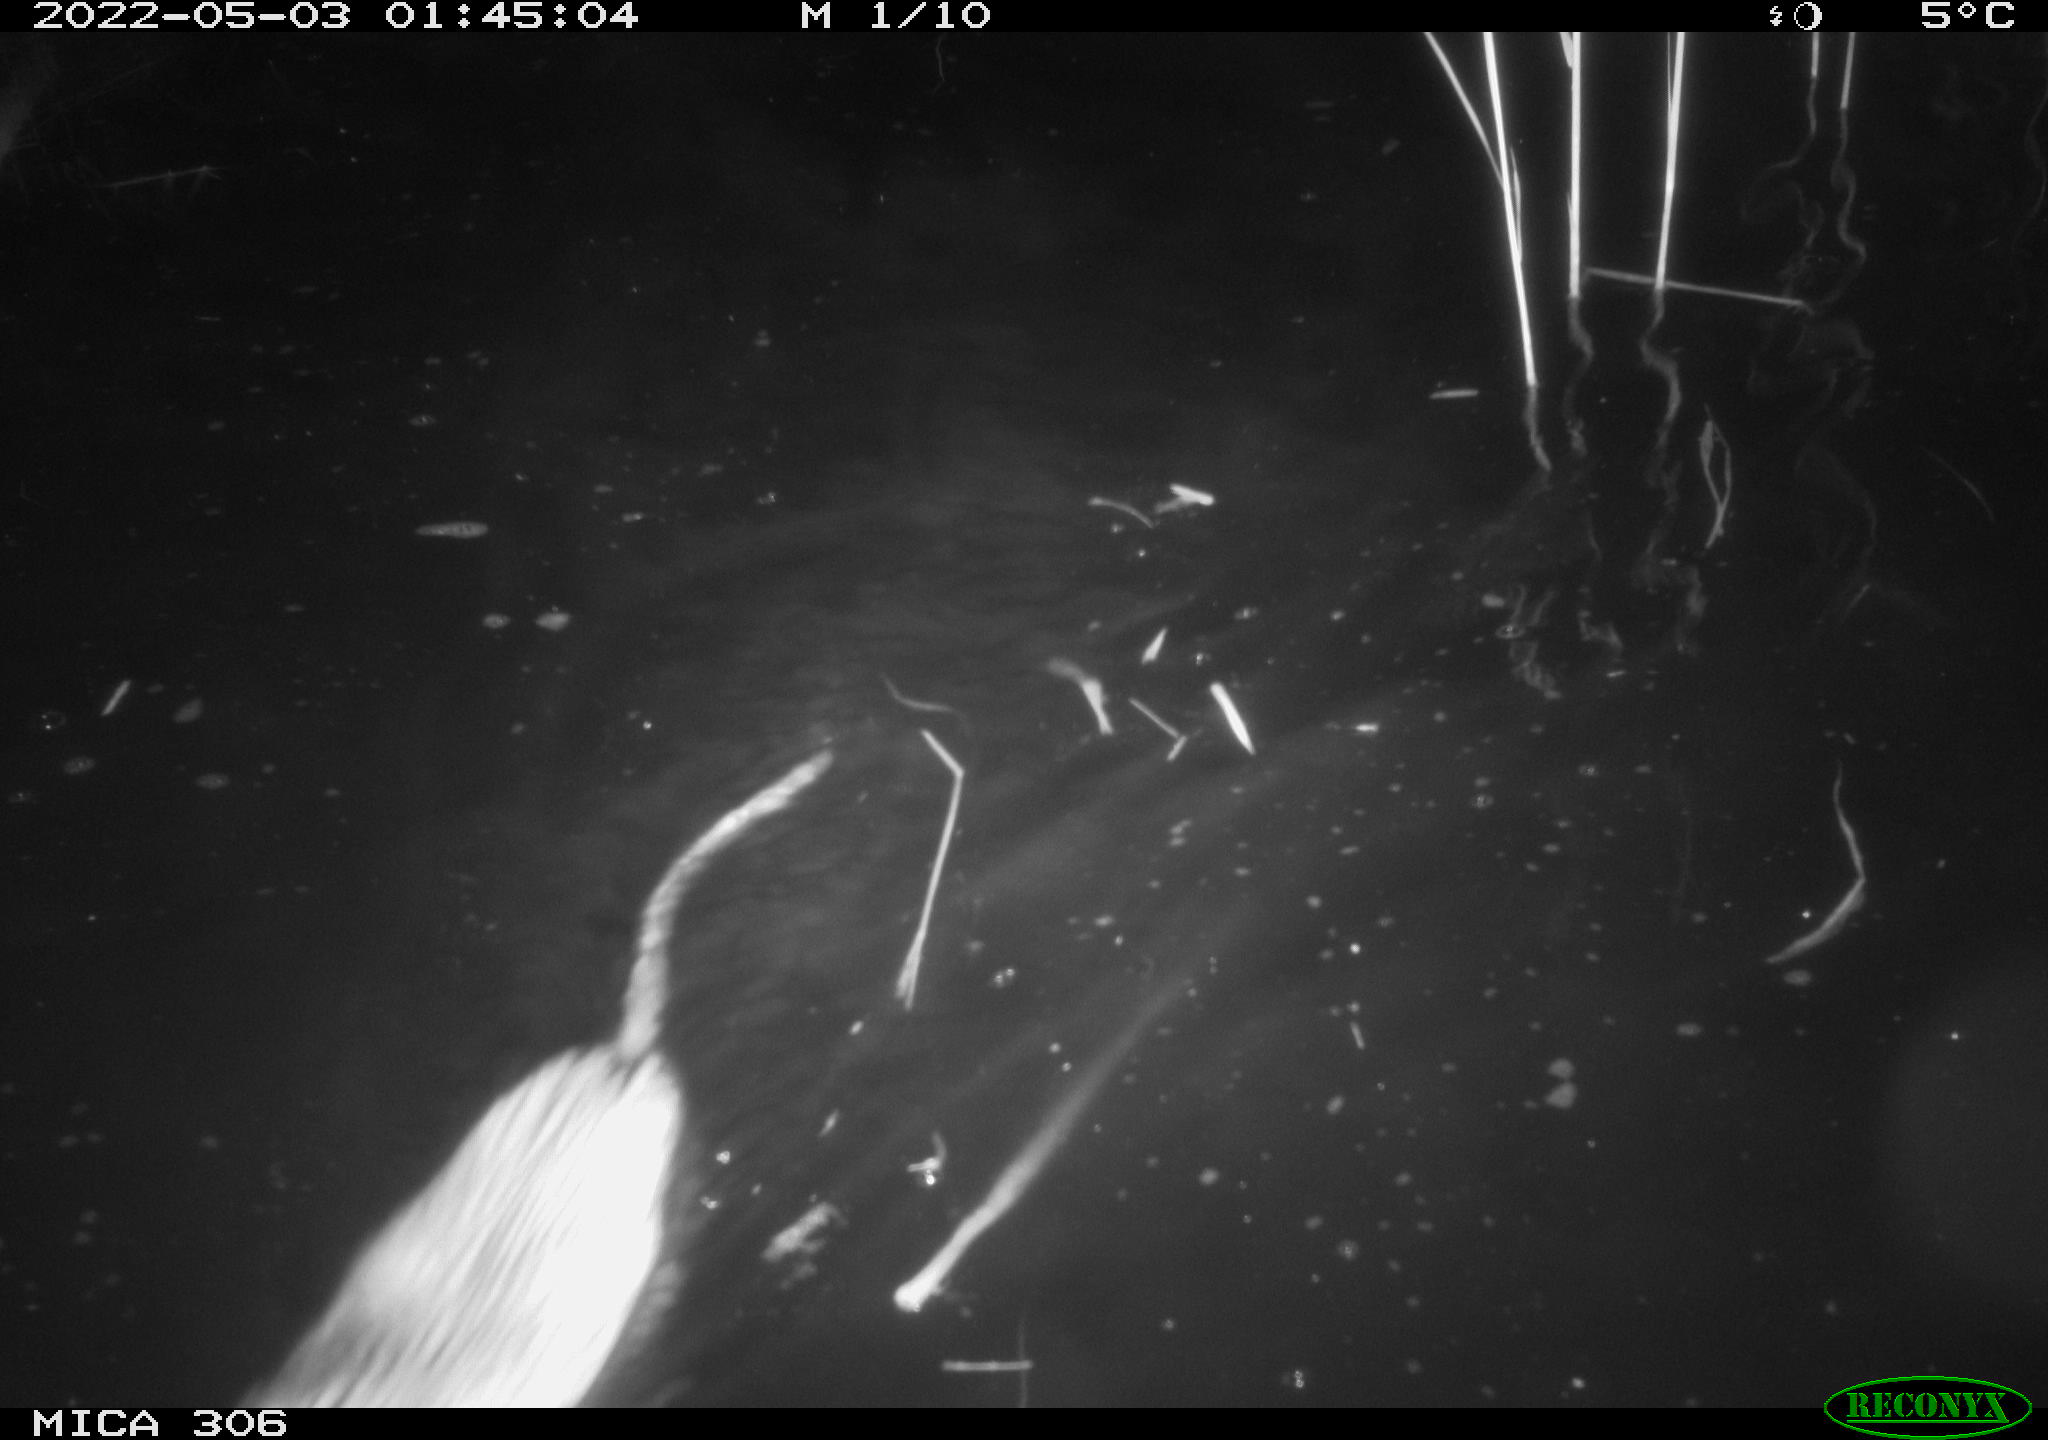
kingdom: Animalia
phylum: Chordata
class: Mammalia
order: Rodentia
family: Cricetidae
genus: Ondatra
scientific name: Ondatra zibethicus
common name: Muskrat
